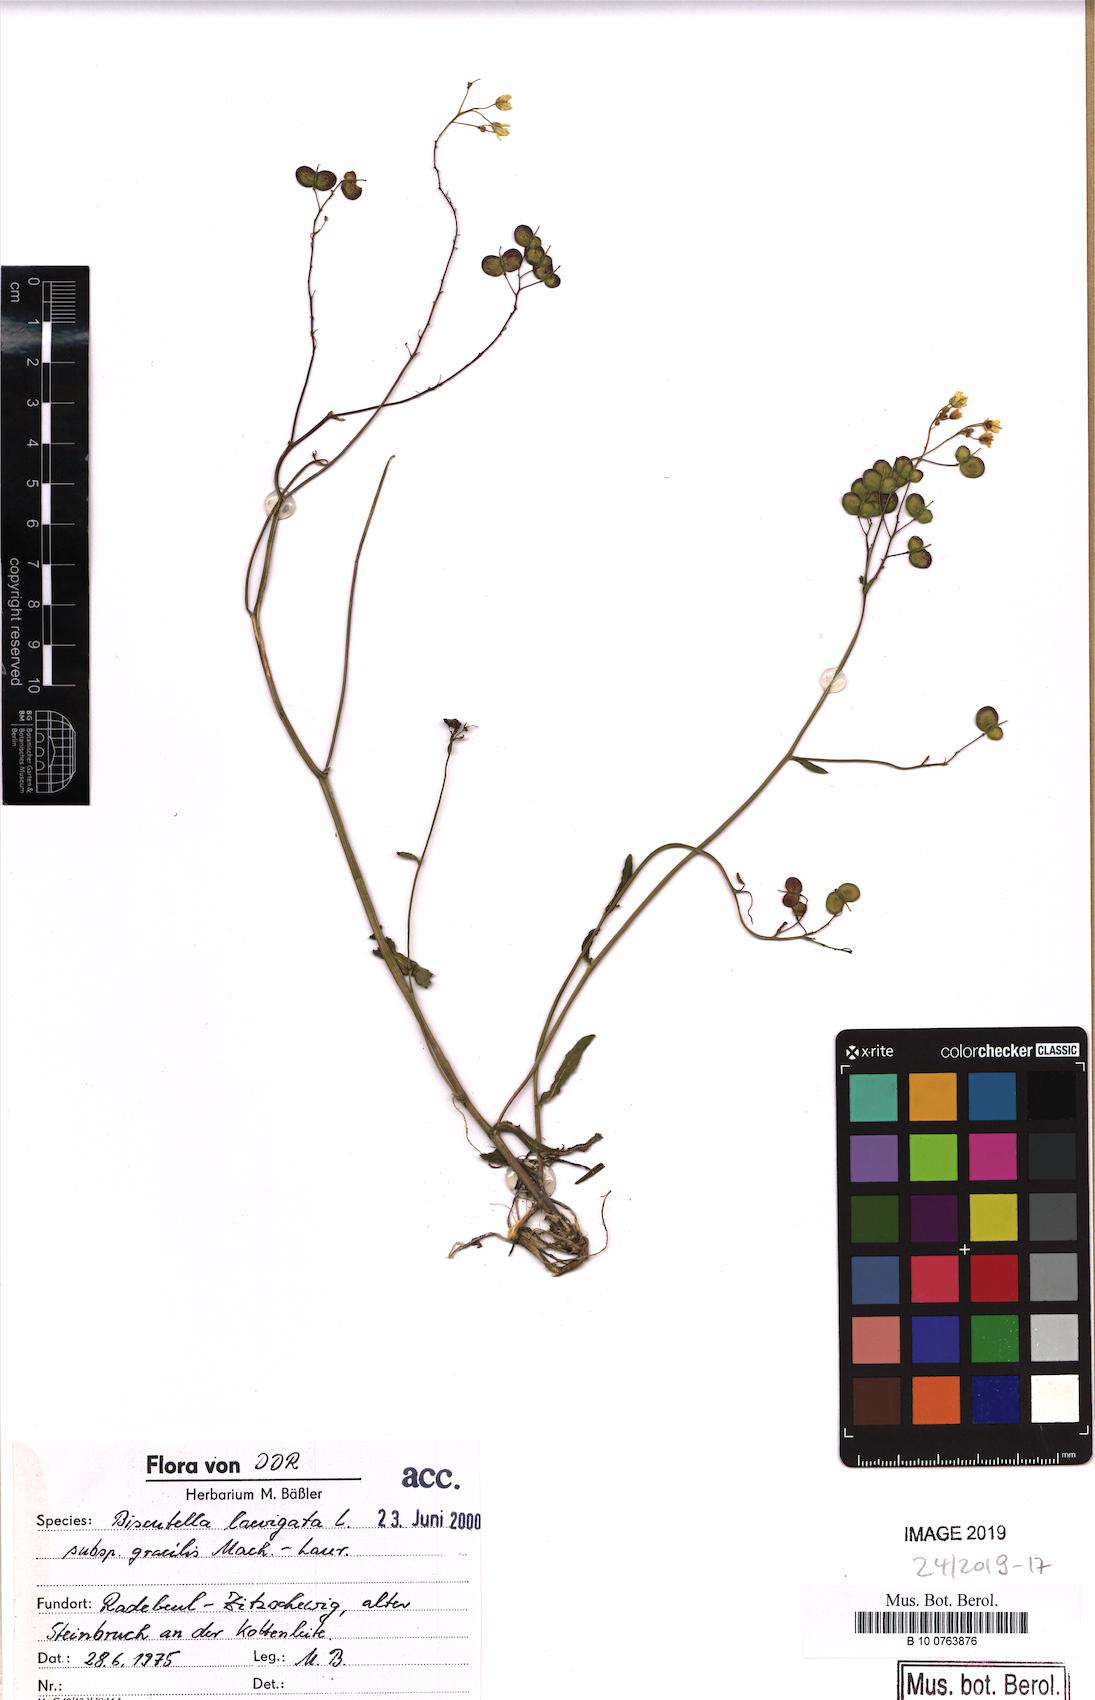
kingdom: Plantae
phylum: Tracheophyta
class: Magnoliopsida
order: Brassicales
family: Brassicaceae
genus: Biscutella
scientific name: Biscutella laevigata
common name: Buckler mustard
